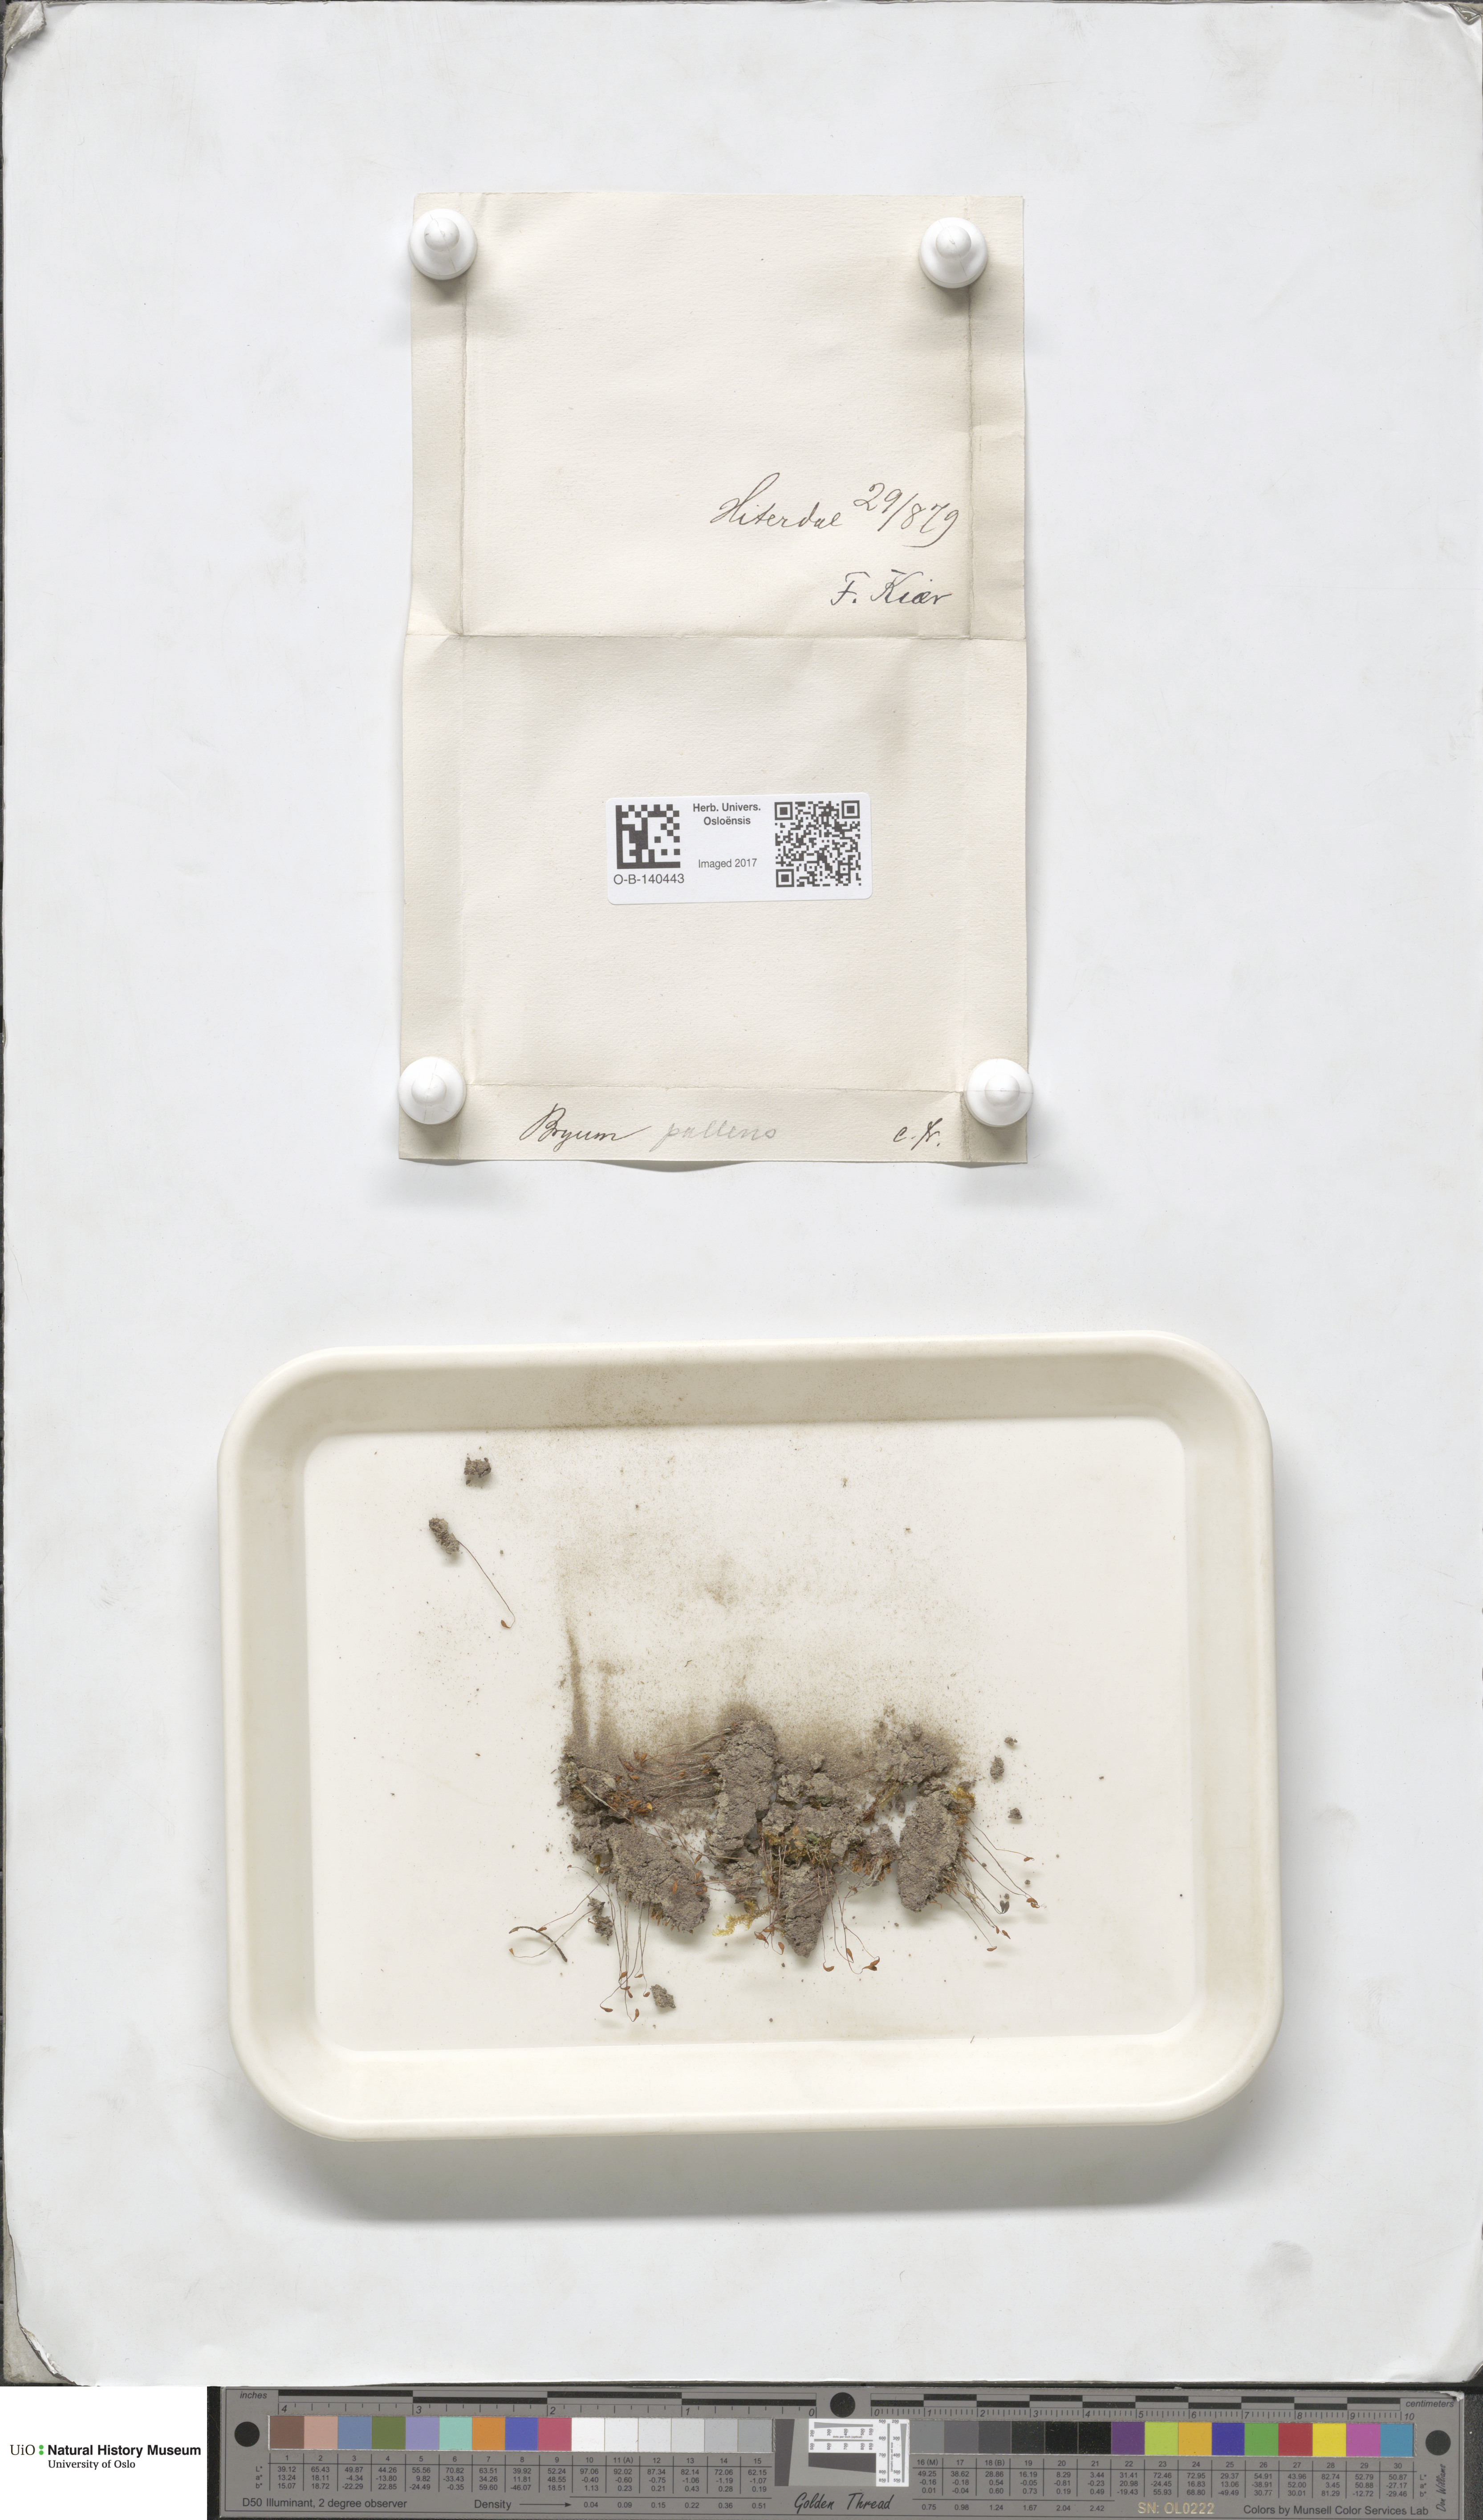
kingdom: Plantae
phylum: Bryophyta
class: Bryopsida
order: Bryales
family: Bryaceae
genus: Ptychostomum
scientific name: Ptychostomum pallens
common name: Pale thread-moss
